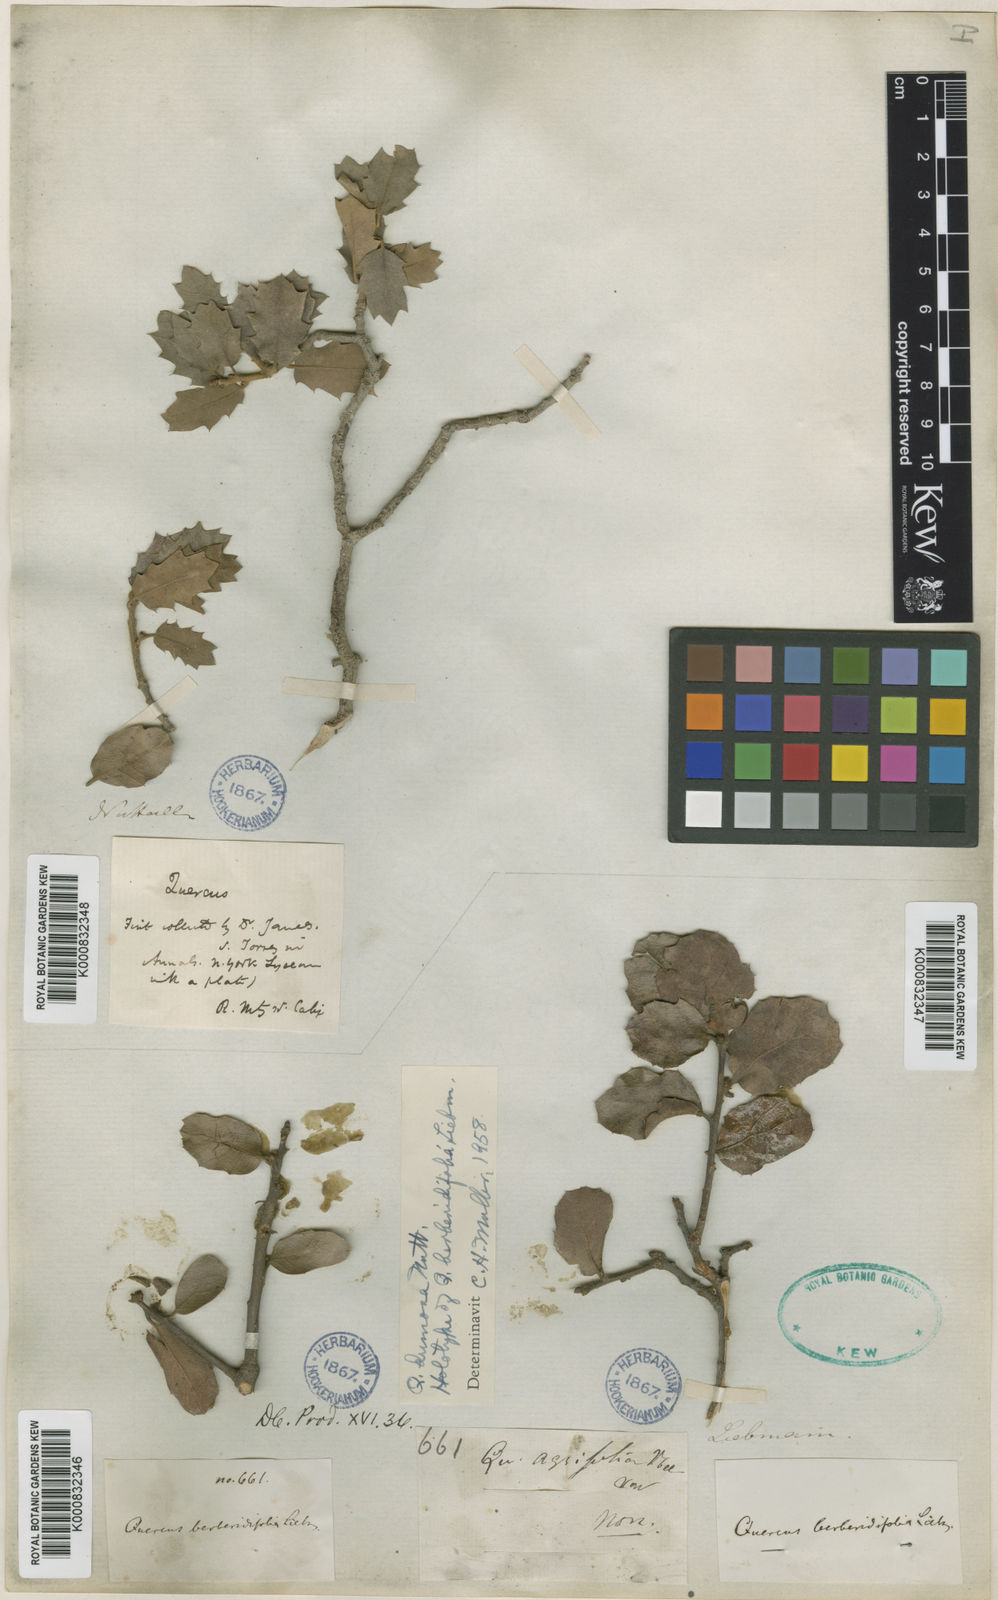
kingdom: Plantae
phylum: Tracheophyta
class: Magnoliopsida
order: Fagales
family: Fagaceae
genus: Quercus
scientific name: Quercus dumosa
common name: Coastal sage scrub oak
